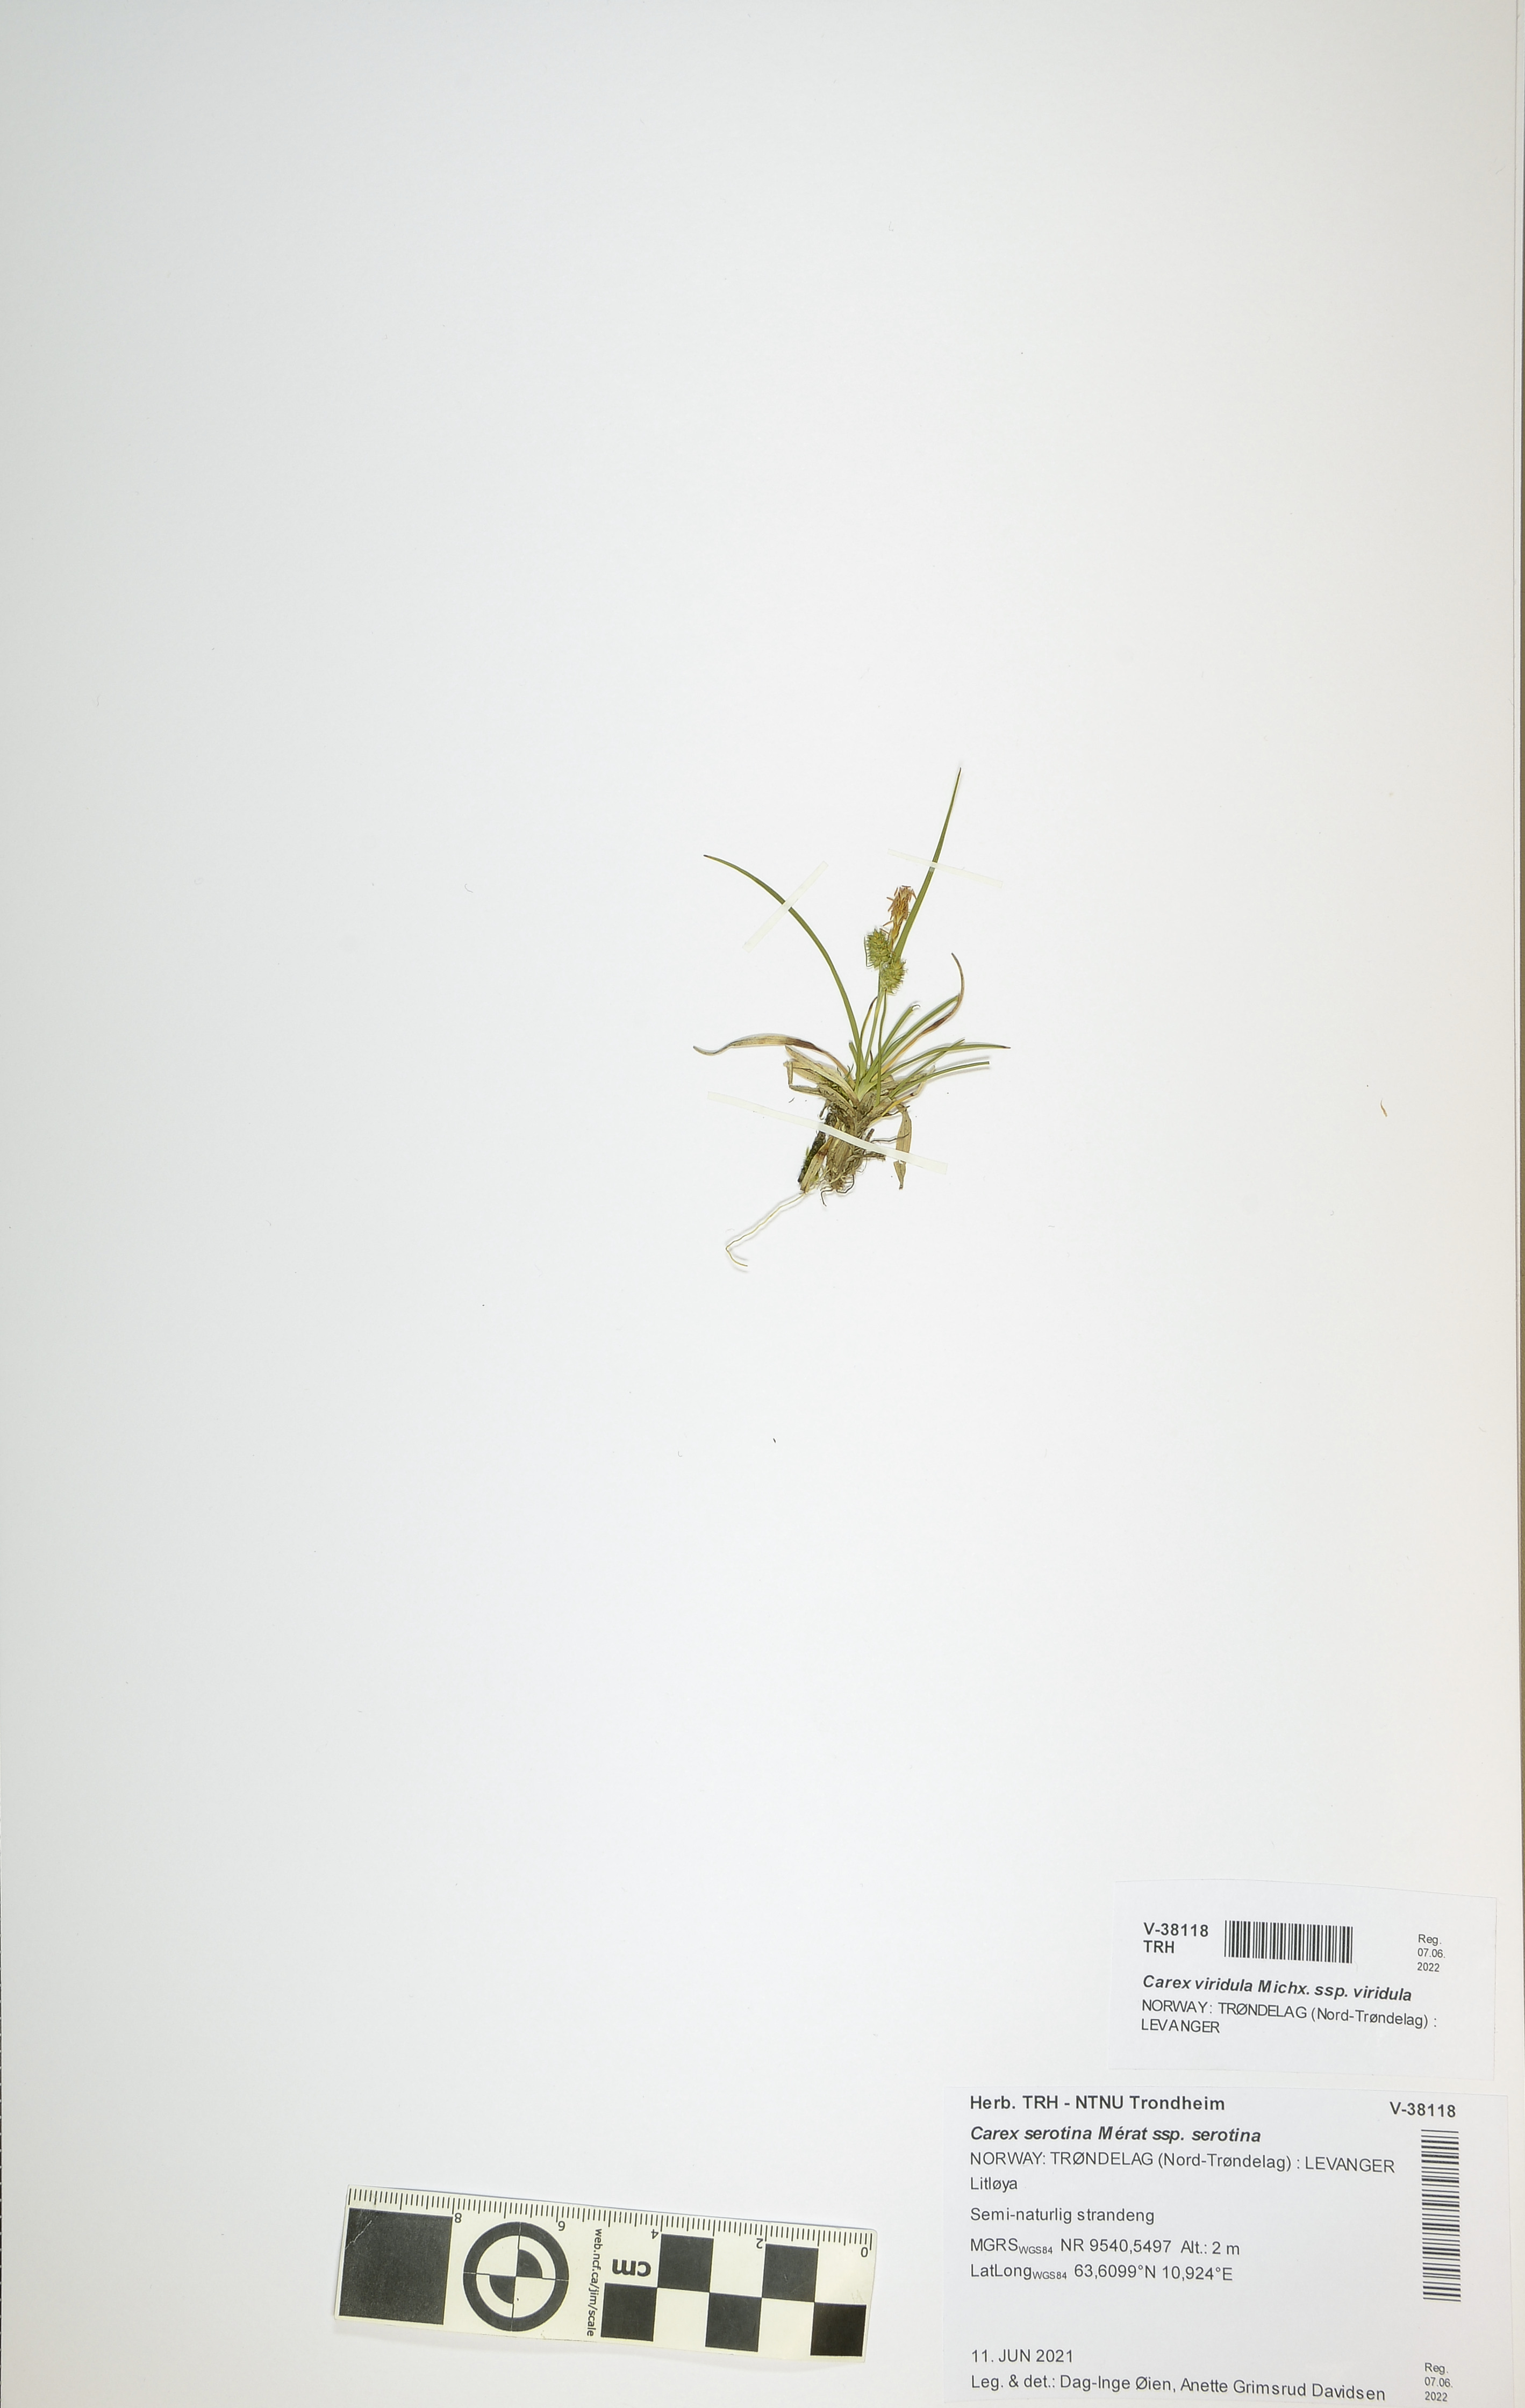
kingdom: Plantae
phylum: Tracheophyta
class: Liliopsida
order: Poales
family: Cyperaceae
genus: Carex
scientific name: Carex oederi
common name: Common & small-fruited yellow-sedge
